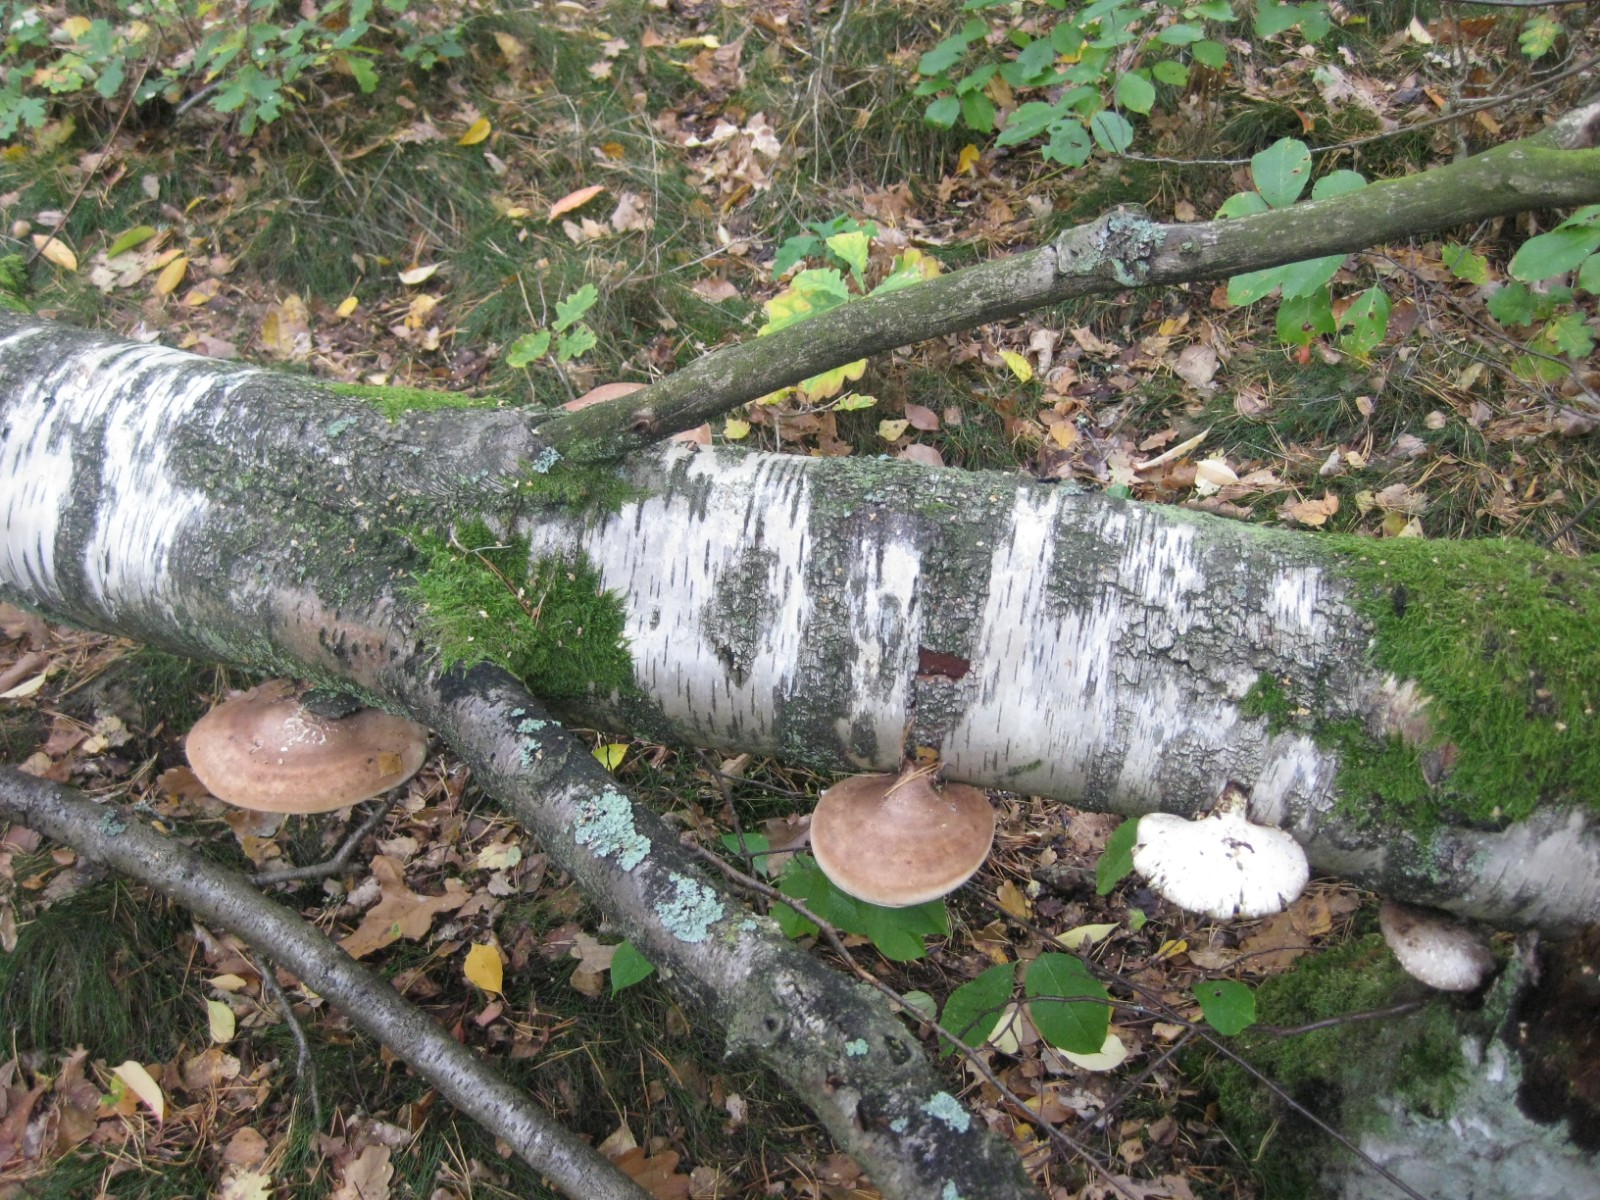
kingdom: Fungi
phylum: Basidiomycota
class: Agaricomycetes
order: Polyporales
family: Fomitopsidaceae
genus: Fomitopsis
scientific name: Fomitopsis betulina
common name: birkeporesvamp
